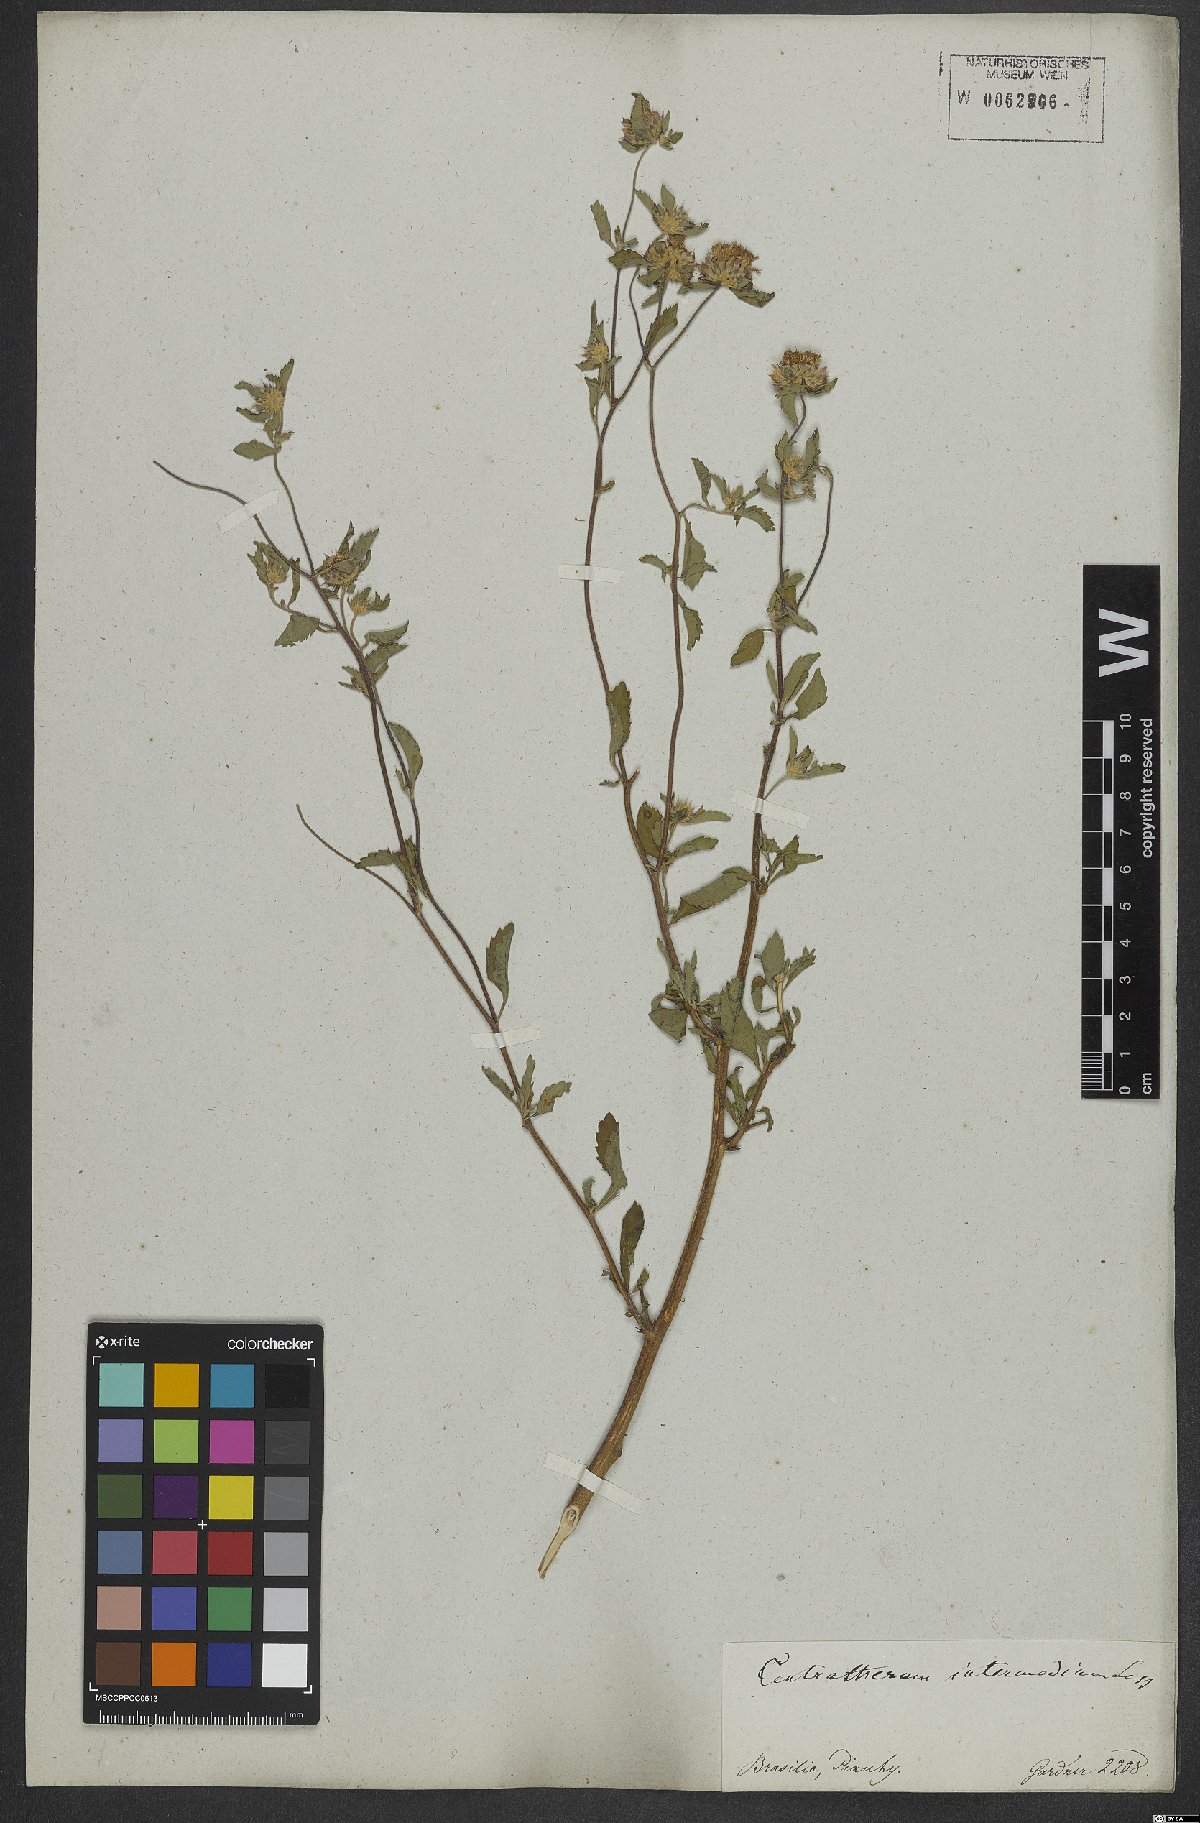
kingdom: Plantae
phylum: Tracheophyta
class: Magnoliopsida
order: Asterales
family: Asteraceae
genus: Centratherum
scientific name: Centratherum punctatum
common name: Larkdaisy
